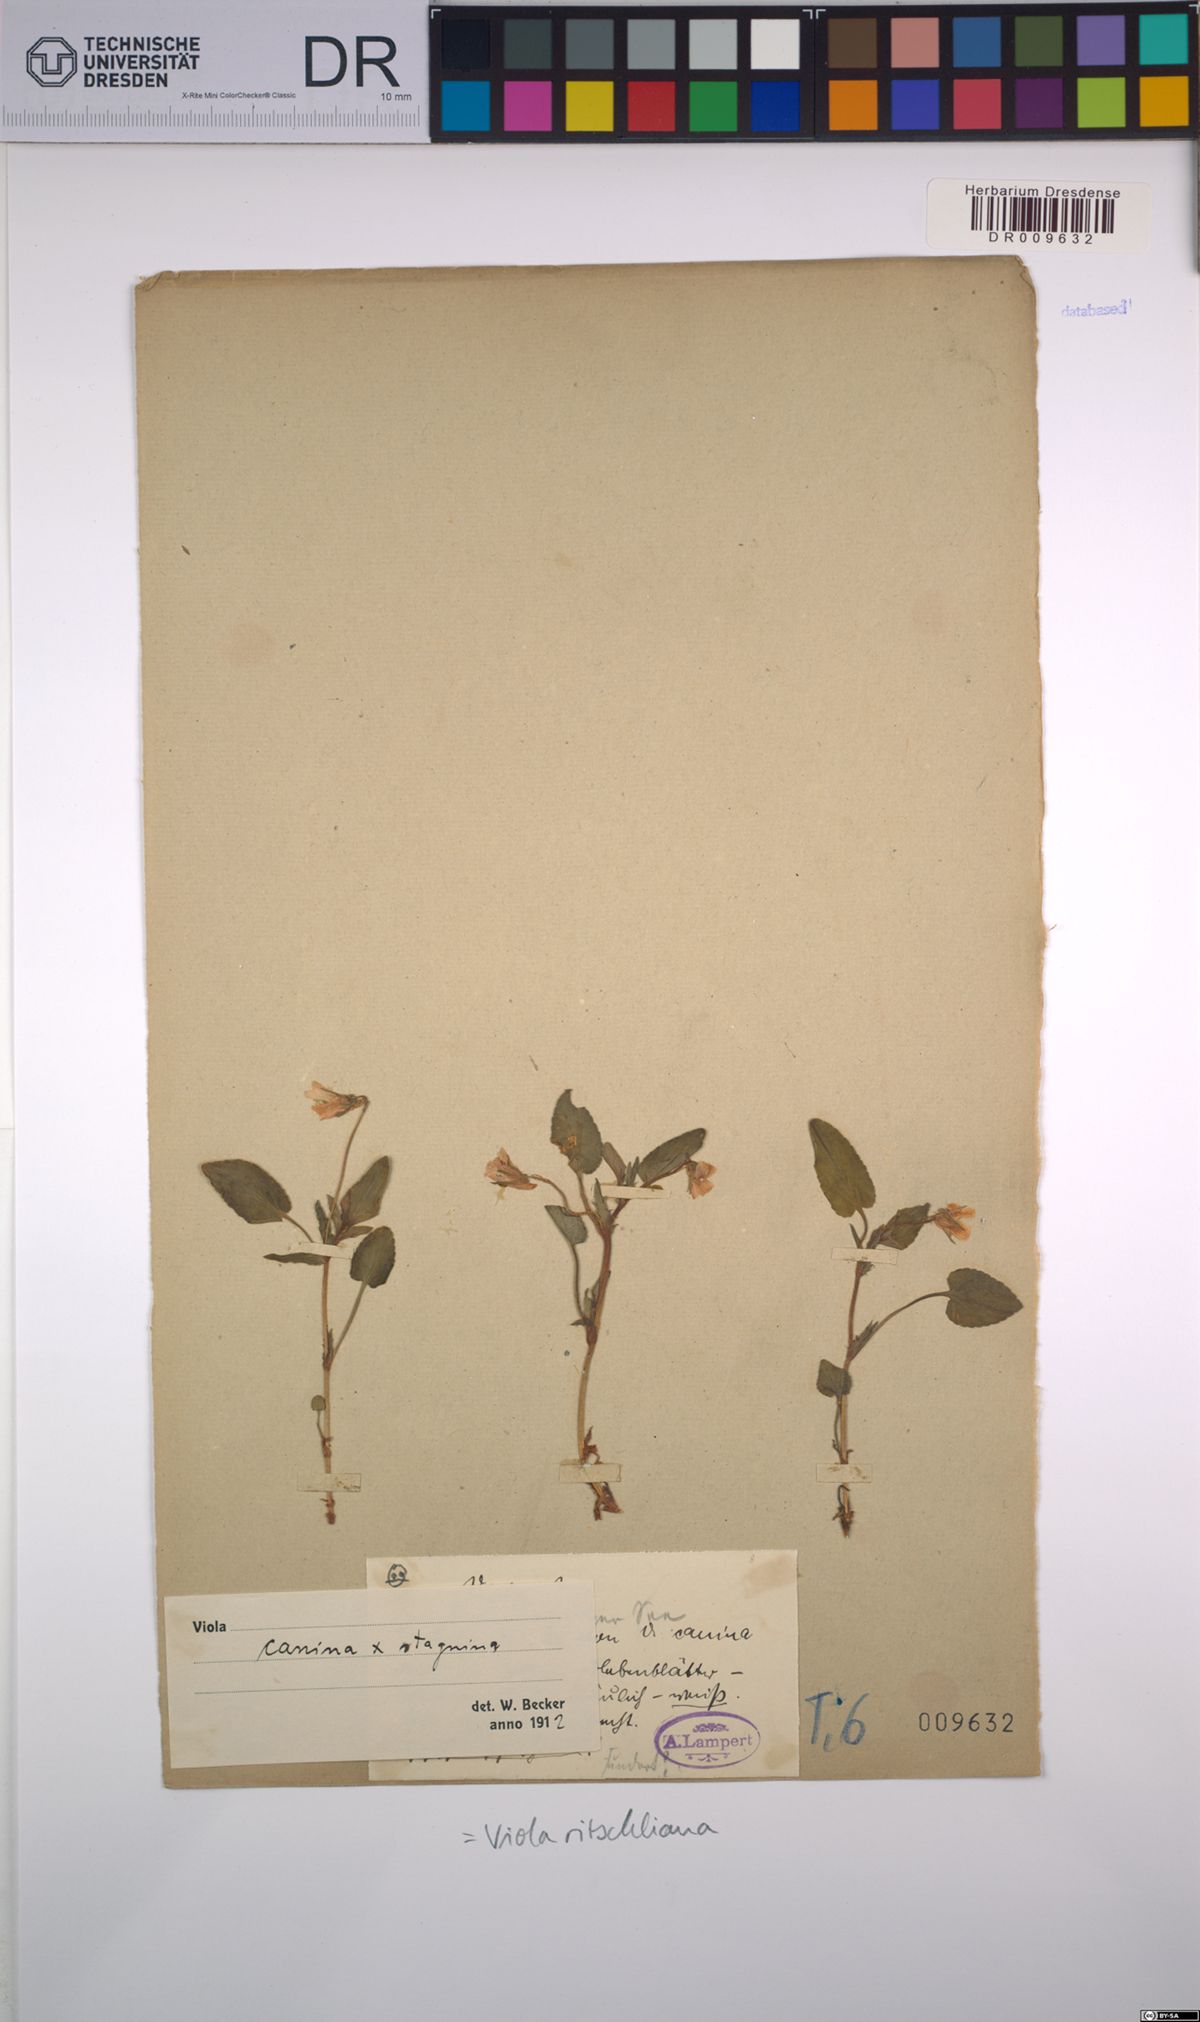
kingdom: Plantae
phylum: Tracheophyta
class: Magnoliopsida
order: Malpighiales
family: Violaceae
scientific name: Violaceae
